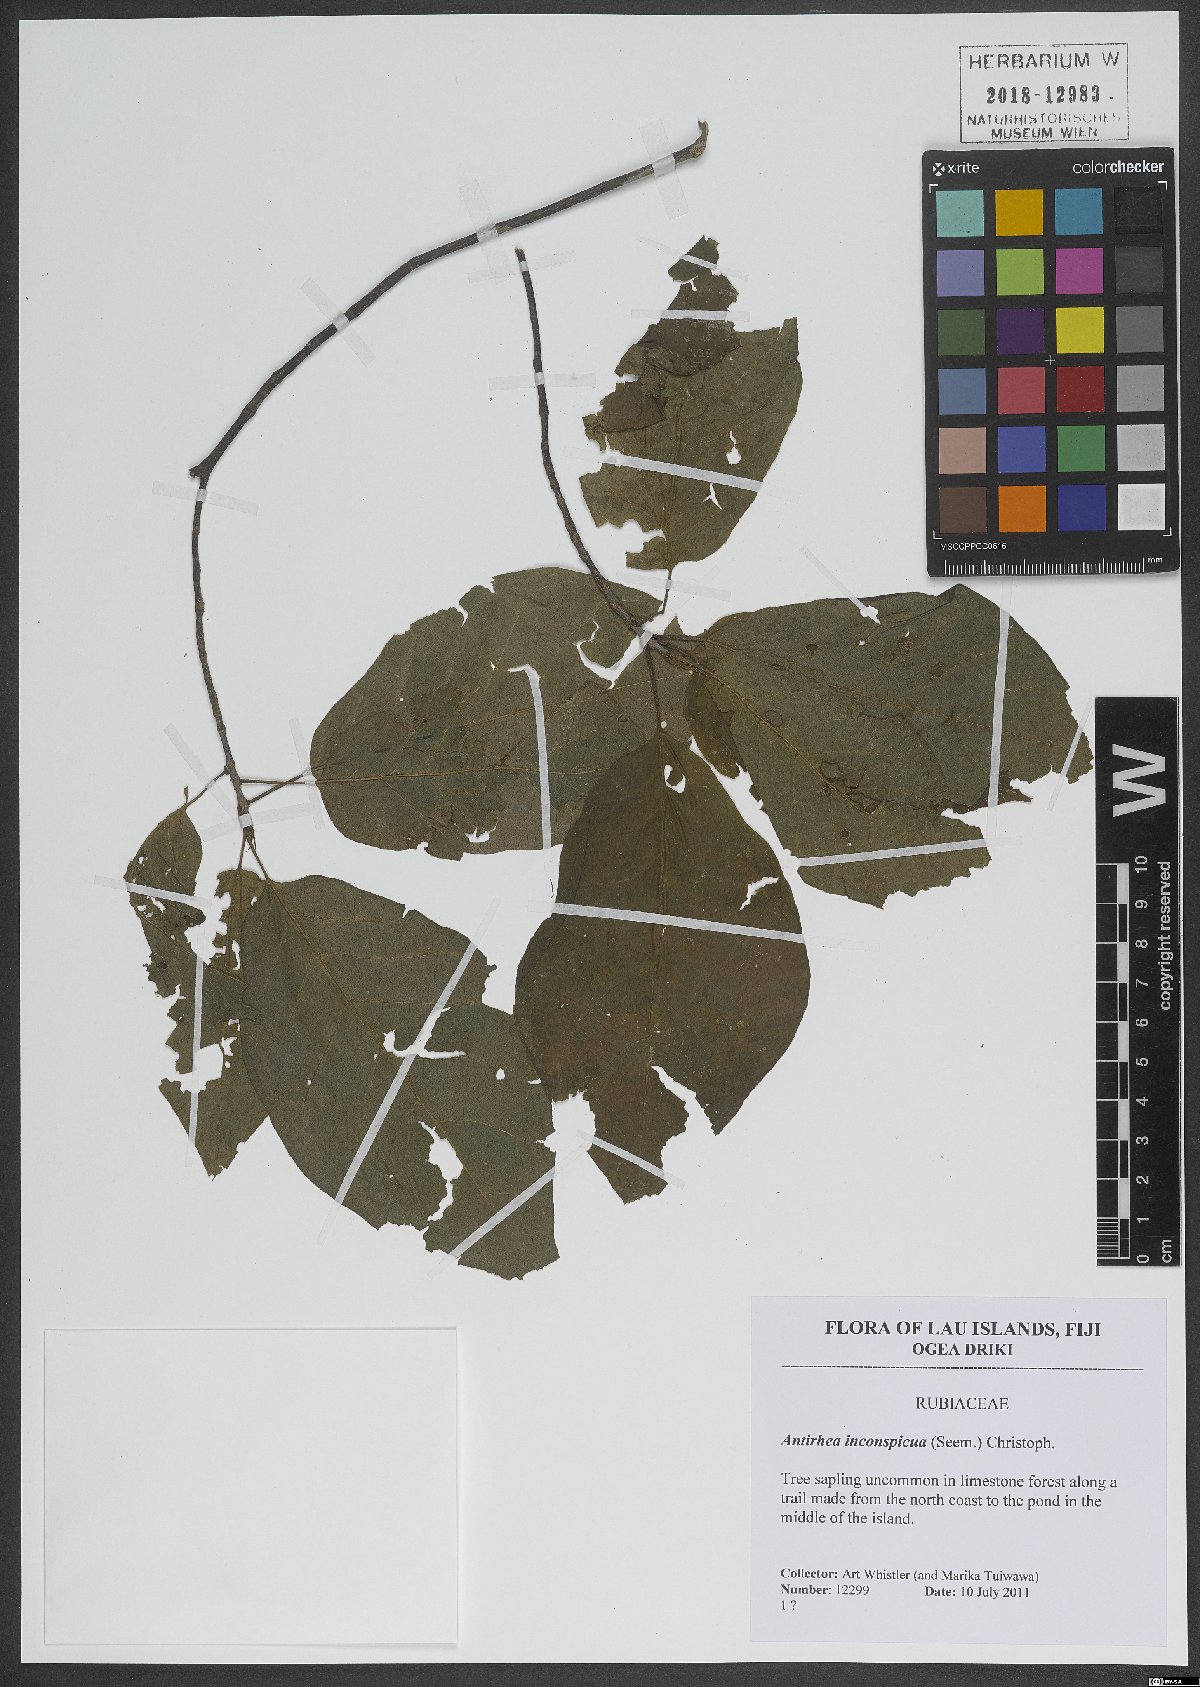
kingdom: Plantae
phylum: Tracheophyta
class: Magnoliopsida
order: Gentianales
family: Rubiaceae
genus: Guettardella
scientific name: Guettardella inconspicua
